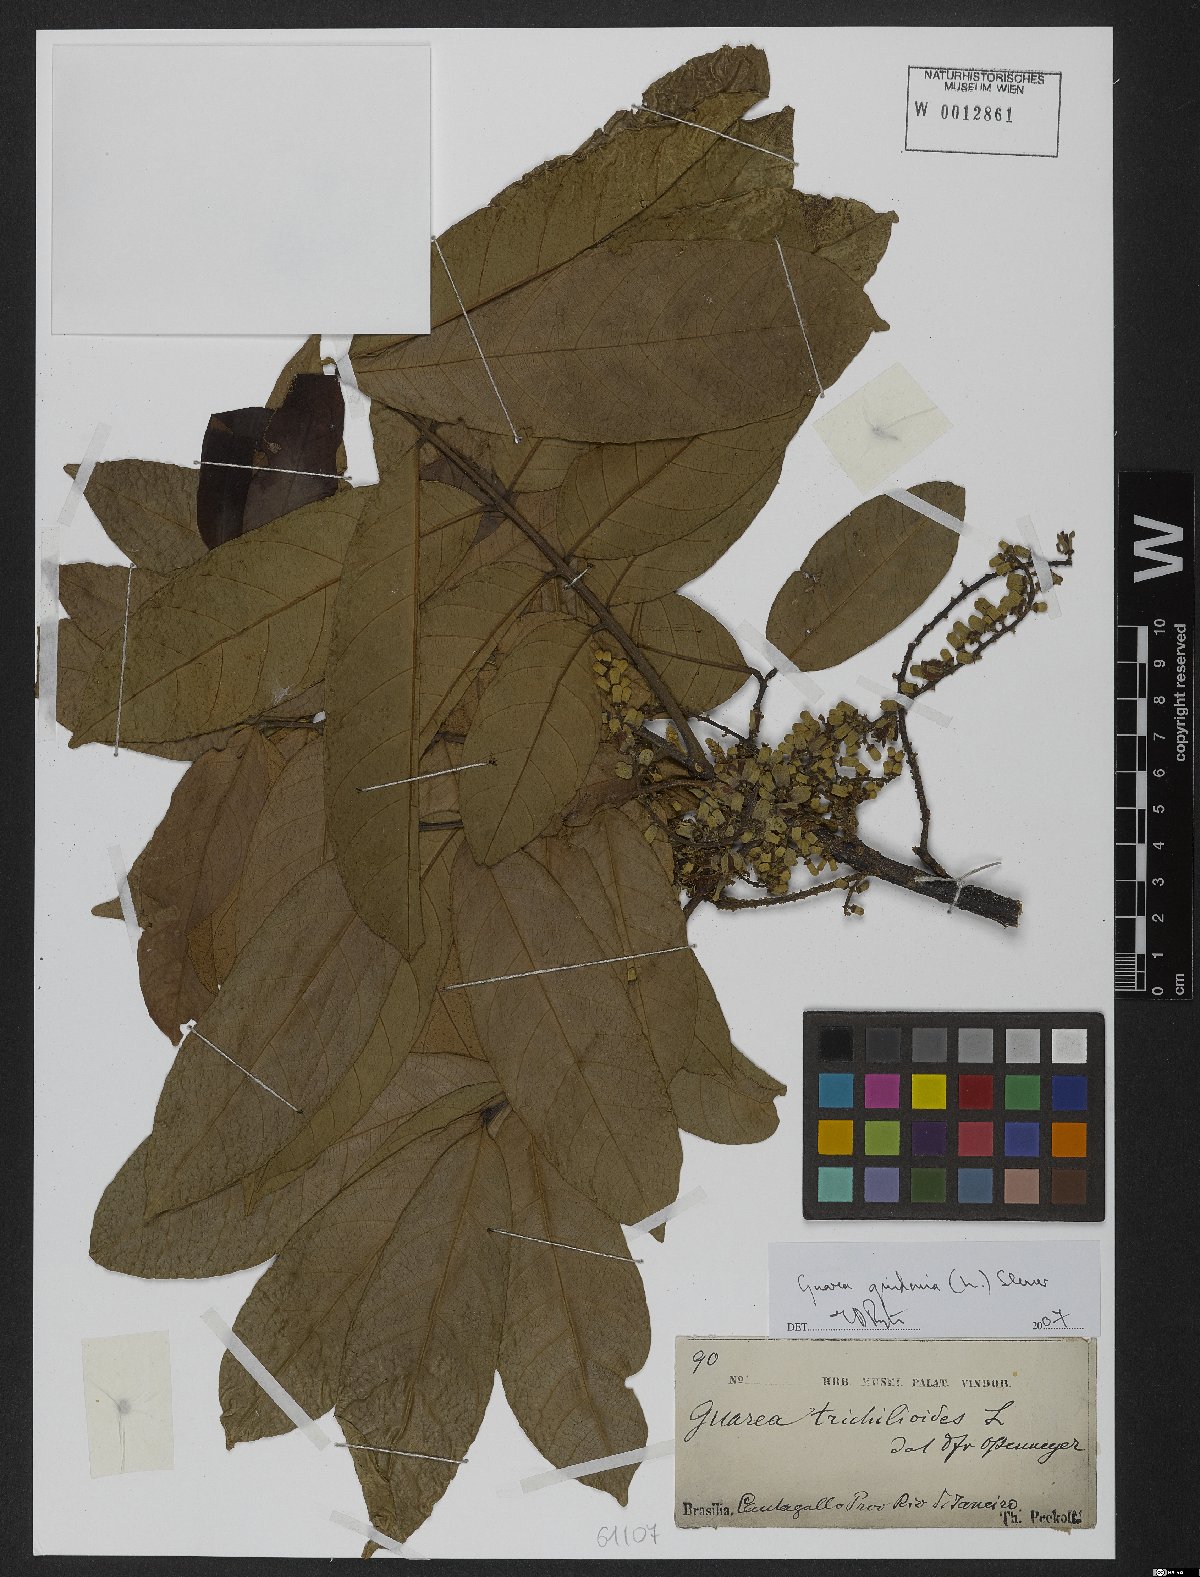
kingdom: Plantae
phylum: Tracheophyta
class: Magnoliopsida
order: Sapindales
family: Meliaceae
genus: Guarea
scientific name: Guarea guidonia
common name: American muskwood
